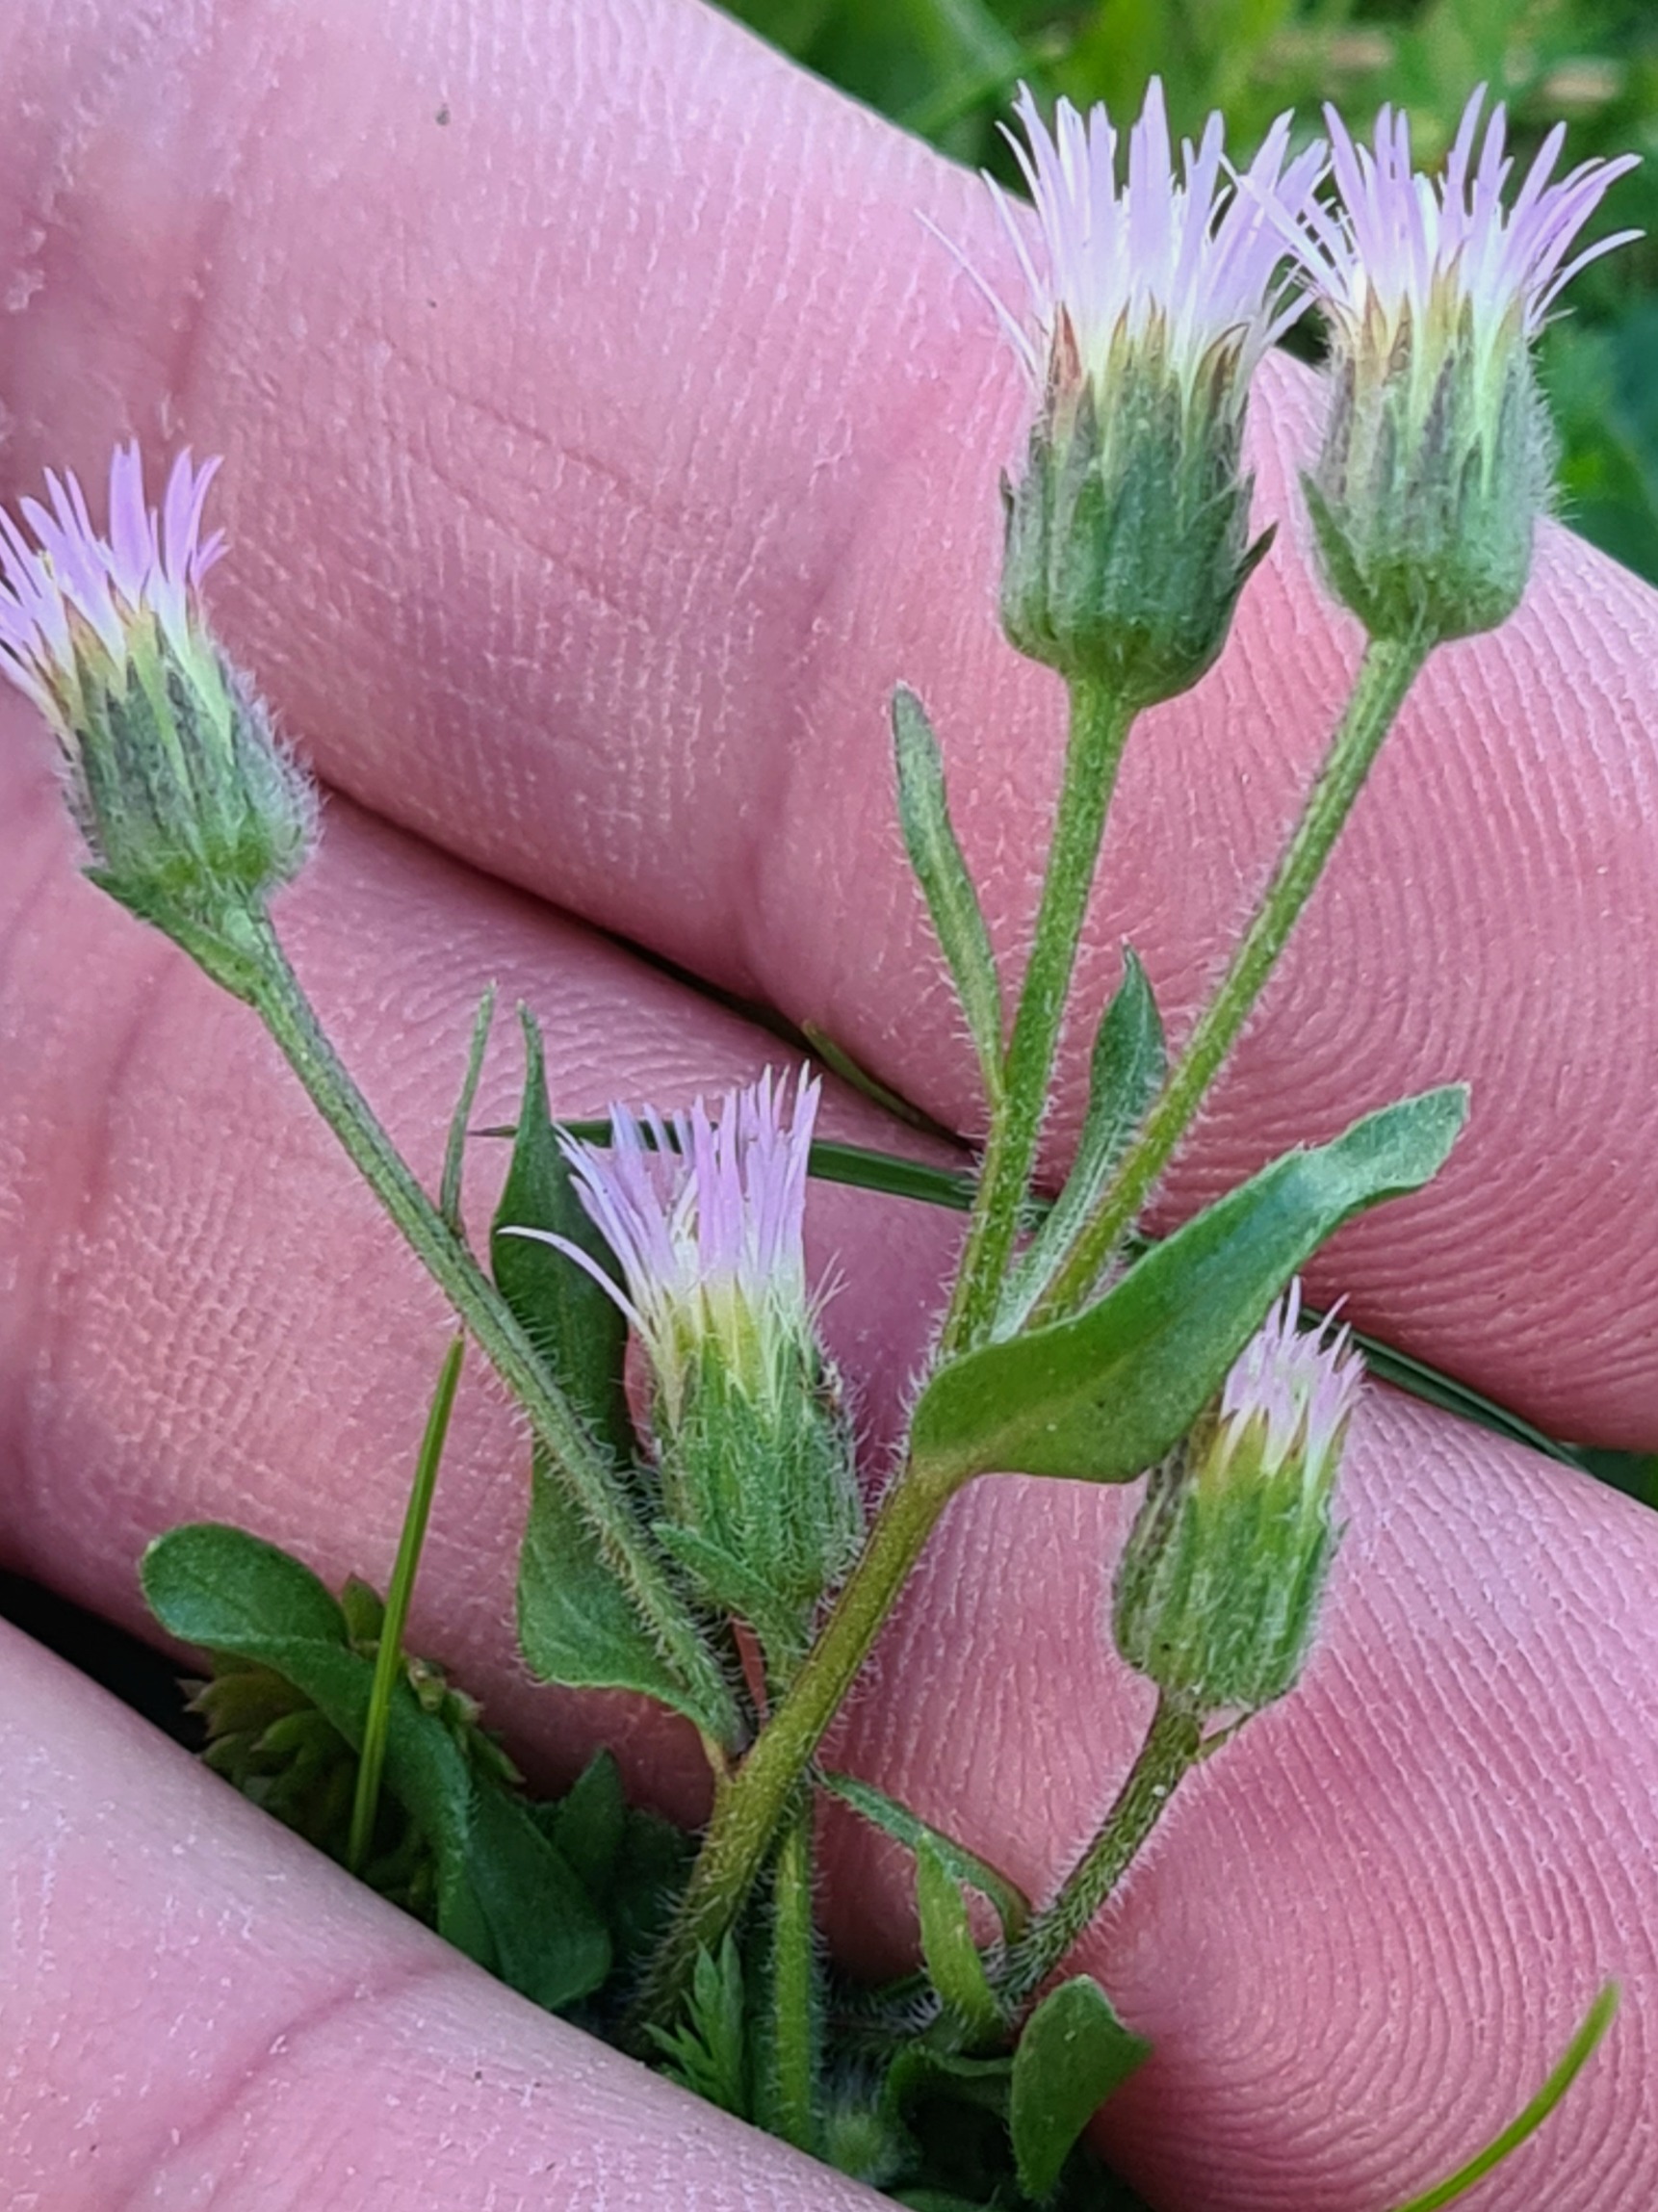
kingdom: Plantae
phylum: Tracheophyta
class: Magnoliopsida
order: Asterales
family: Asteraceae
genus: Erigeron
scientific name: Erigeron muralis
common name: Vreden bakkestjerne
